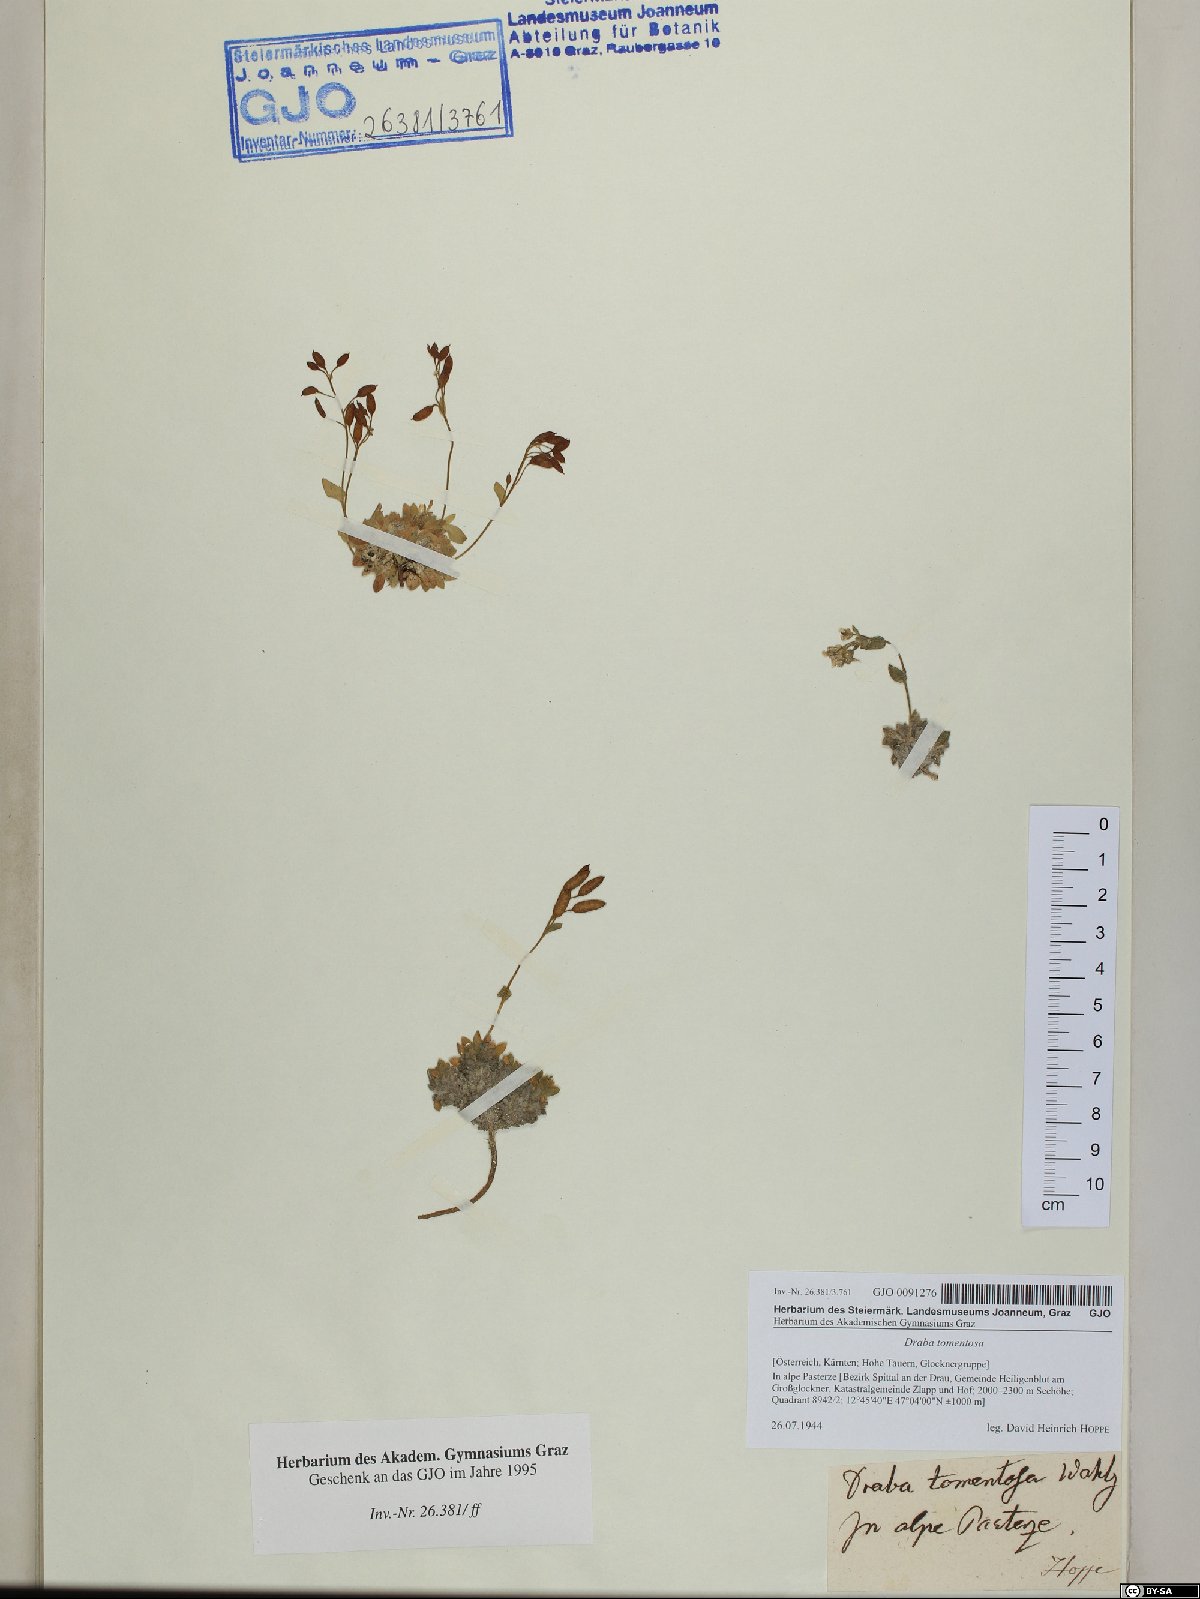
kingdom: Plantae
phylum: Tracheophyta
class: Magnoliopsida
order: Brassicales
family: Brassicaceae
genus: Draba
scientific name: Draba tomentosa
